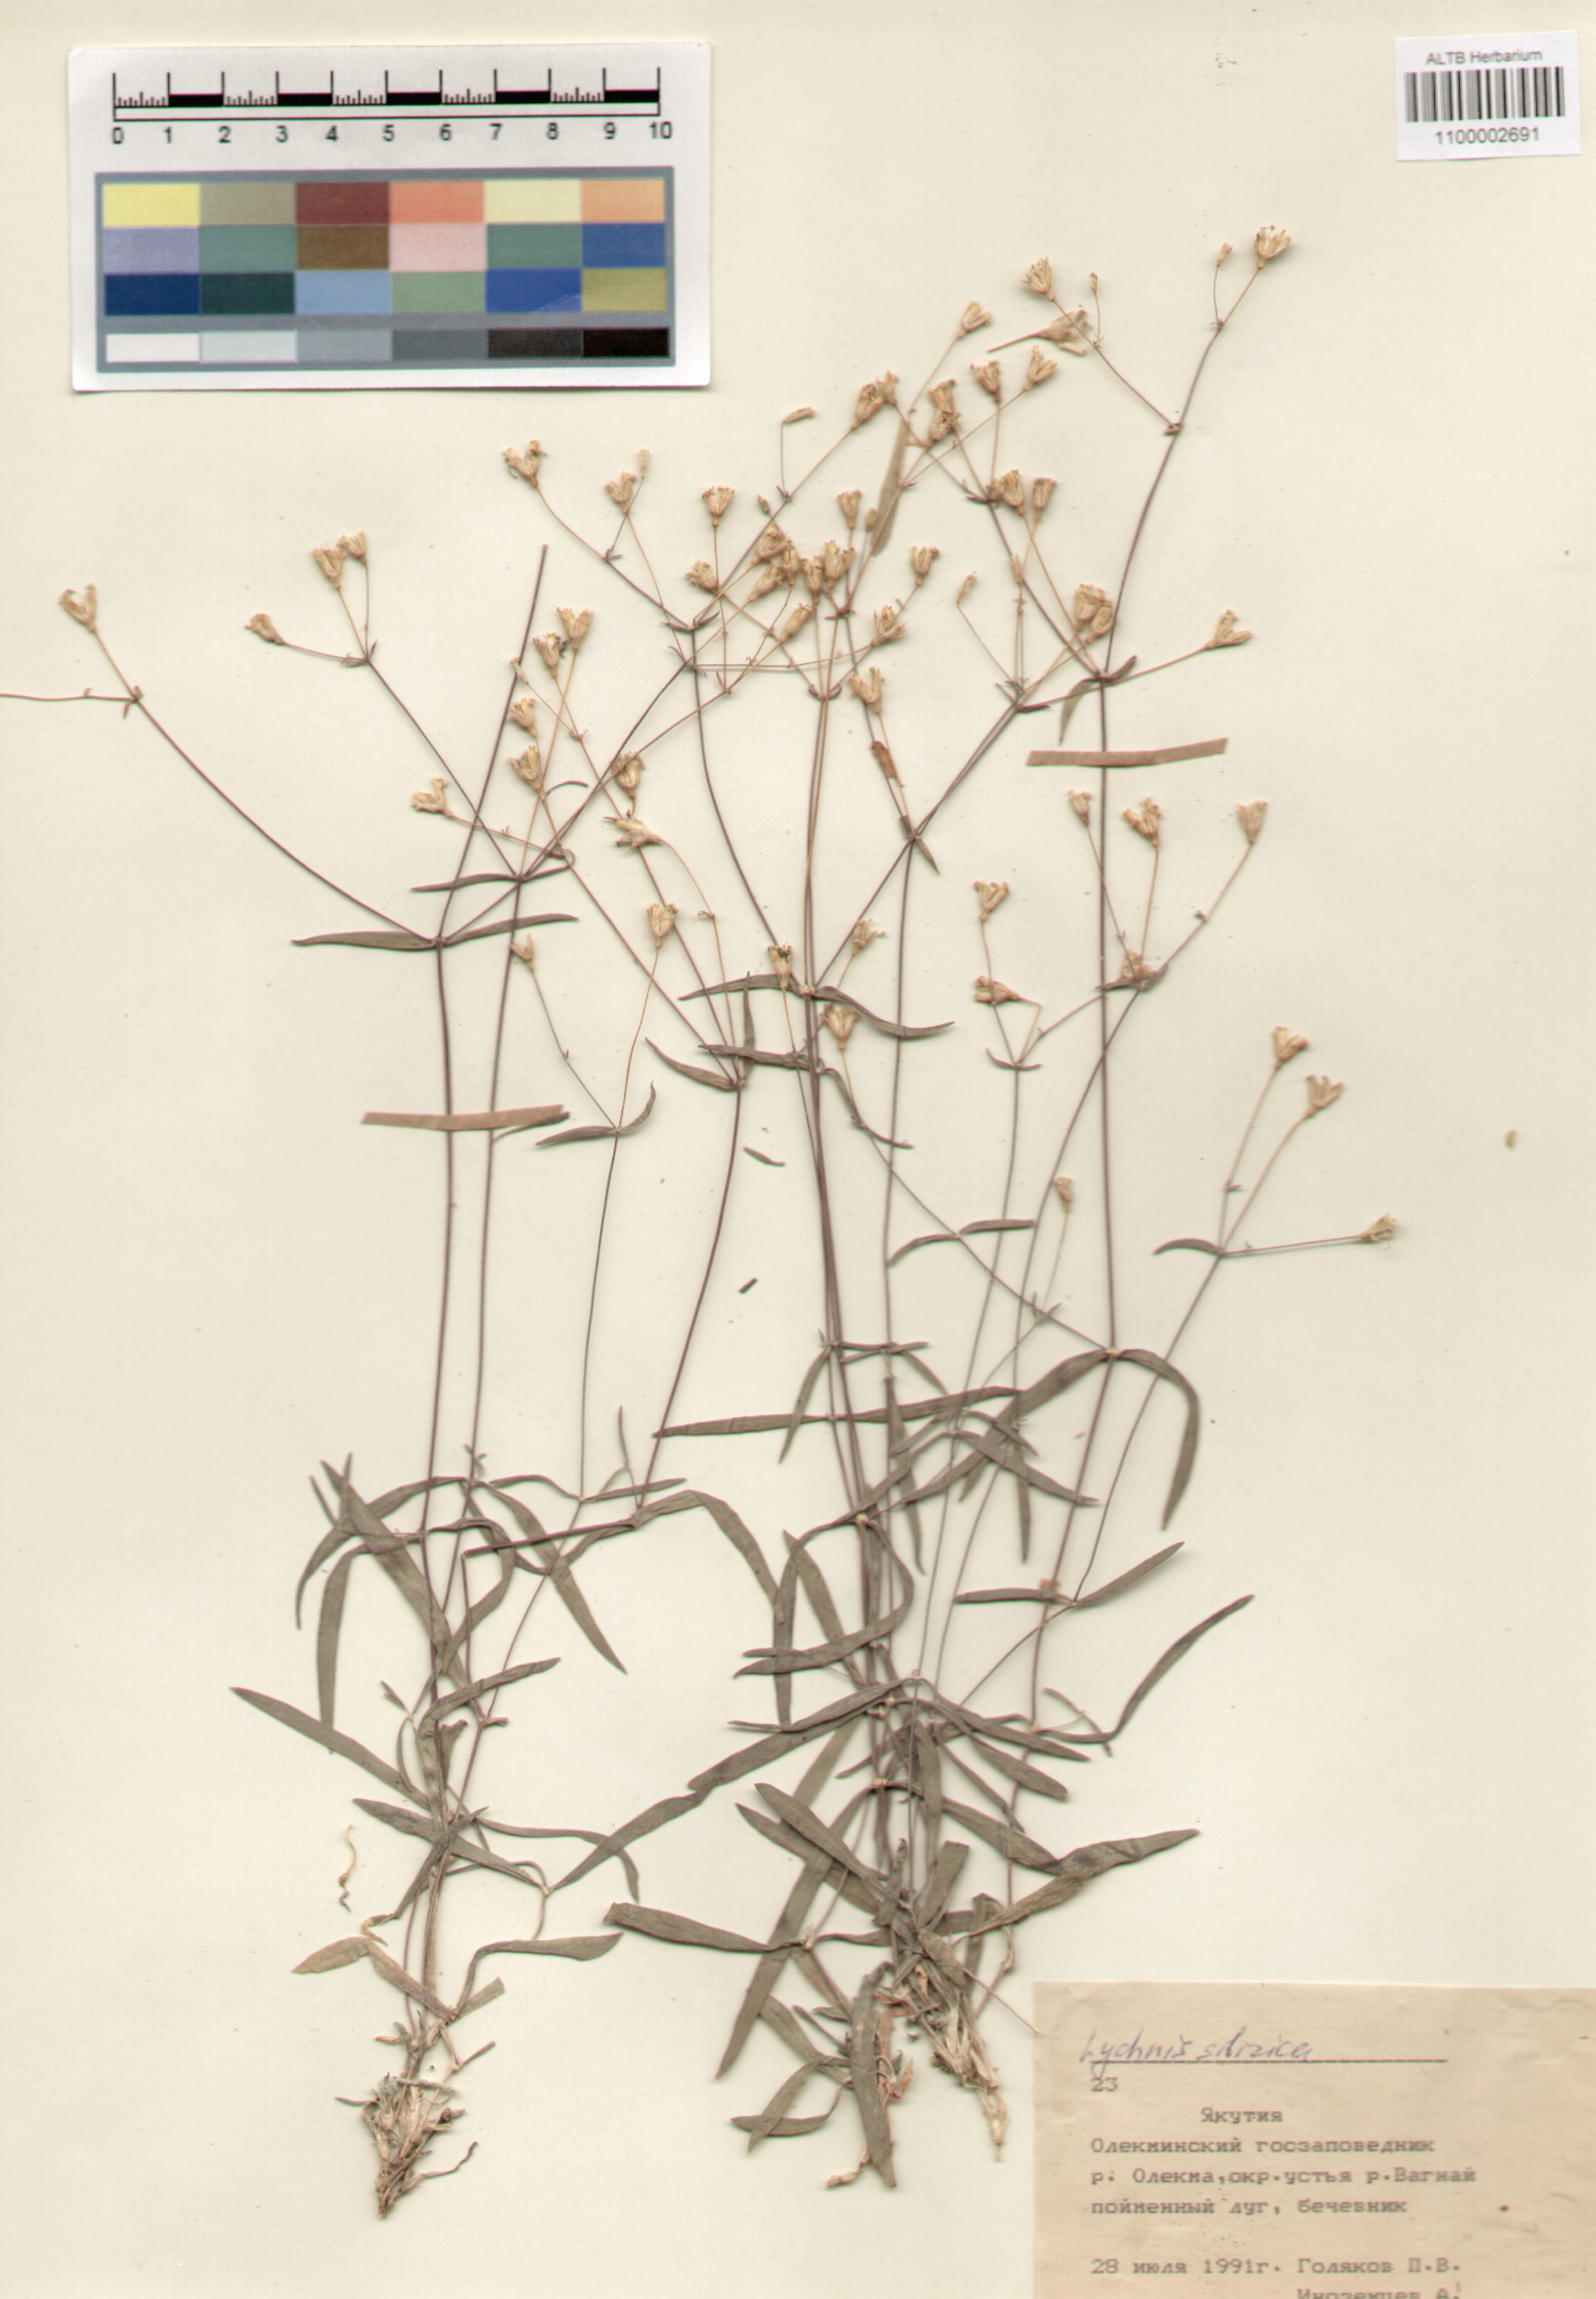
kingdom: Plantae
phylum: Tracheophyta
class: Magnoliopsida
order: Caryophyllales
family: Caryophyllaceae
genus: Silene
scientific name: Silene orientalimongolica
